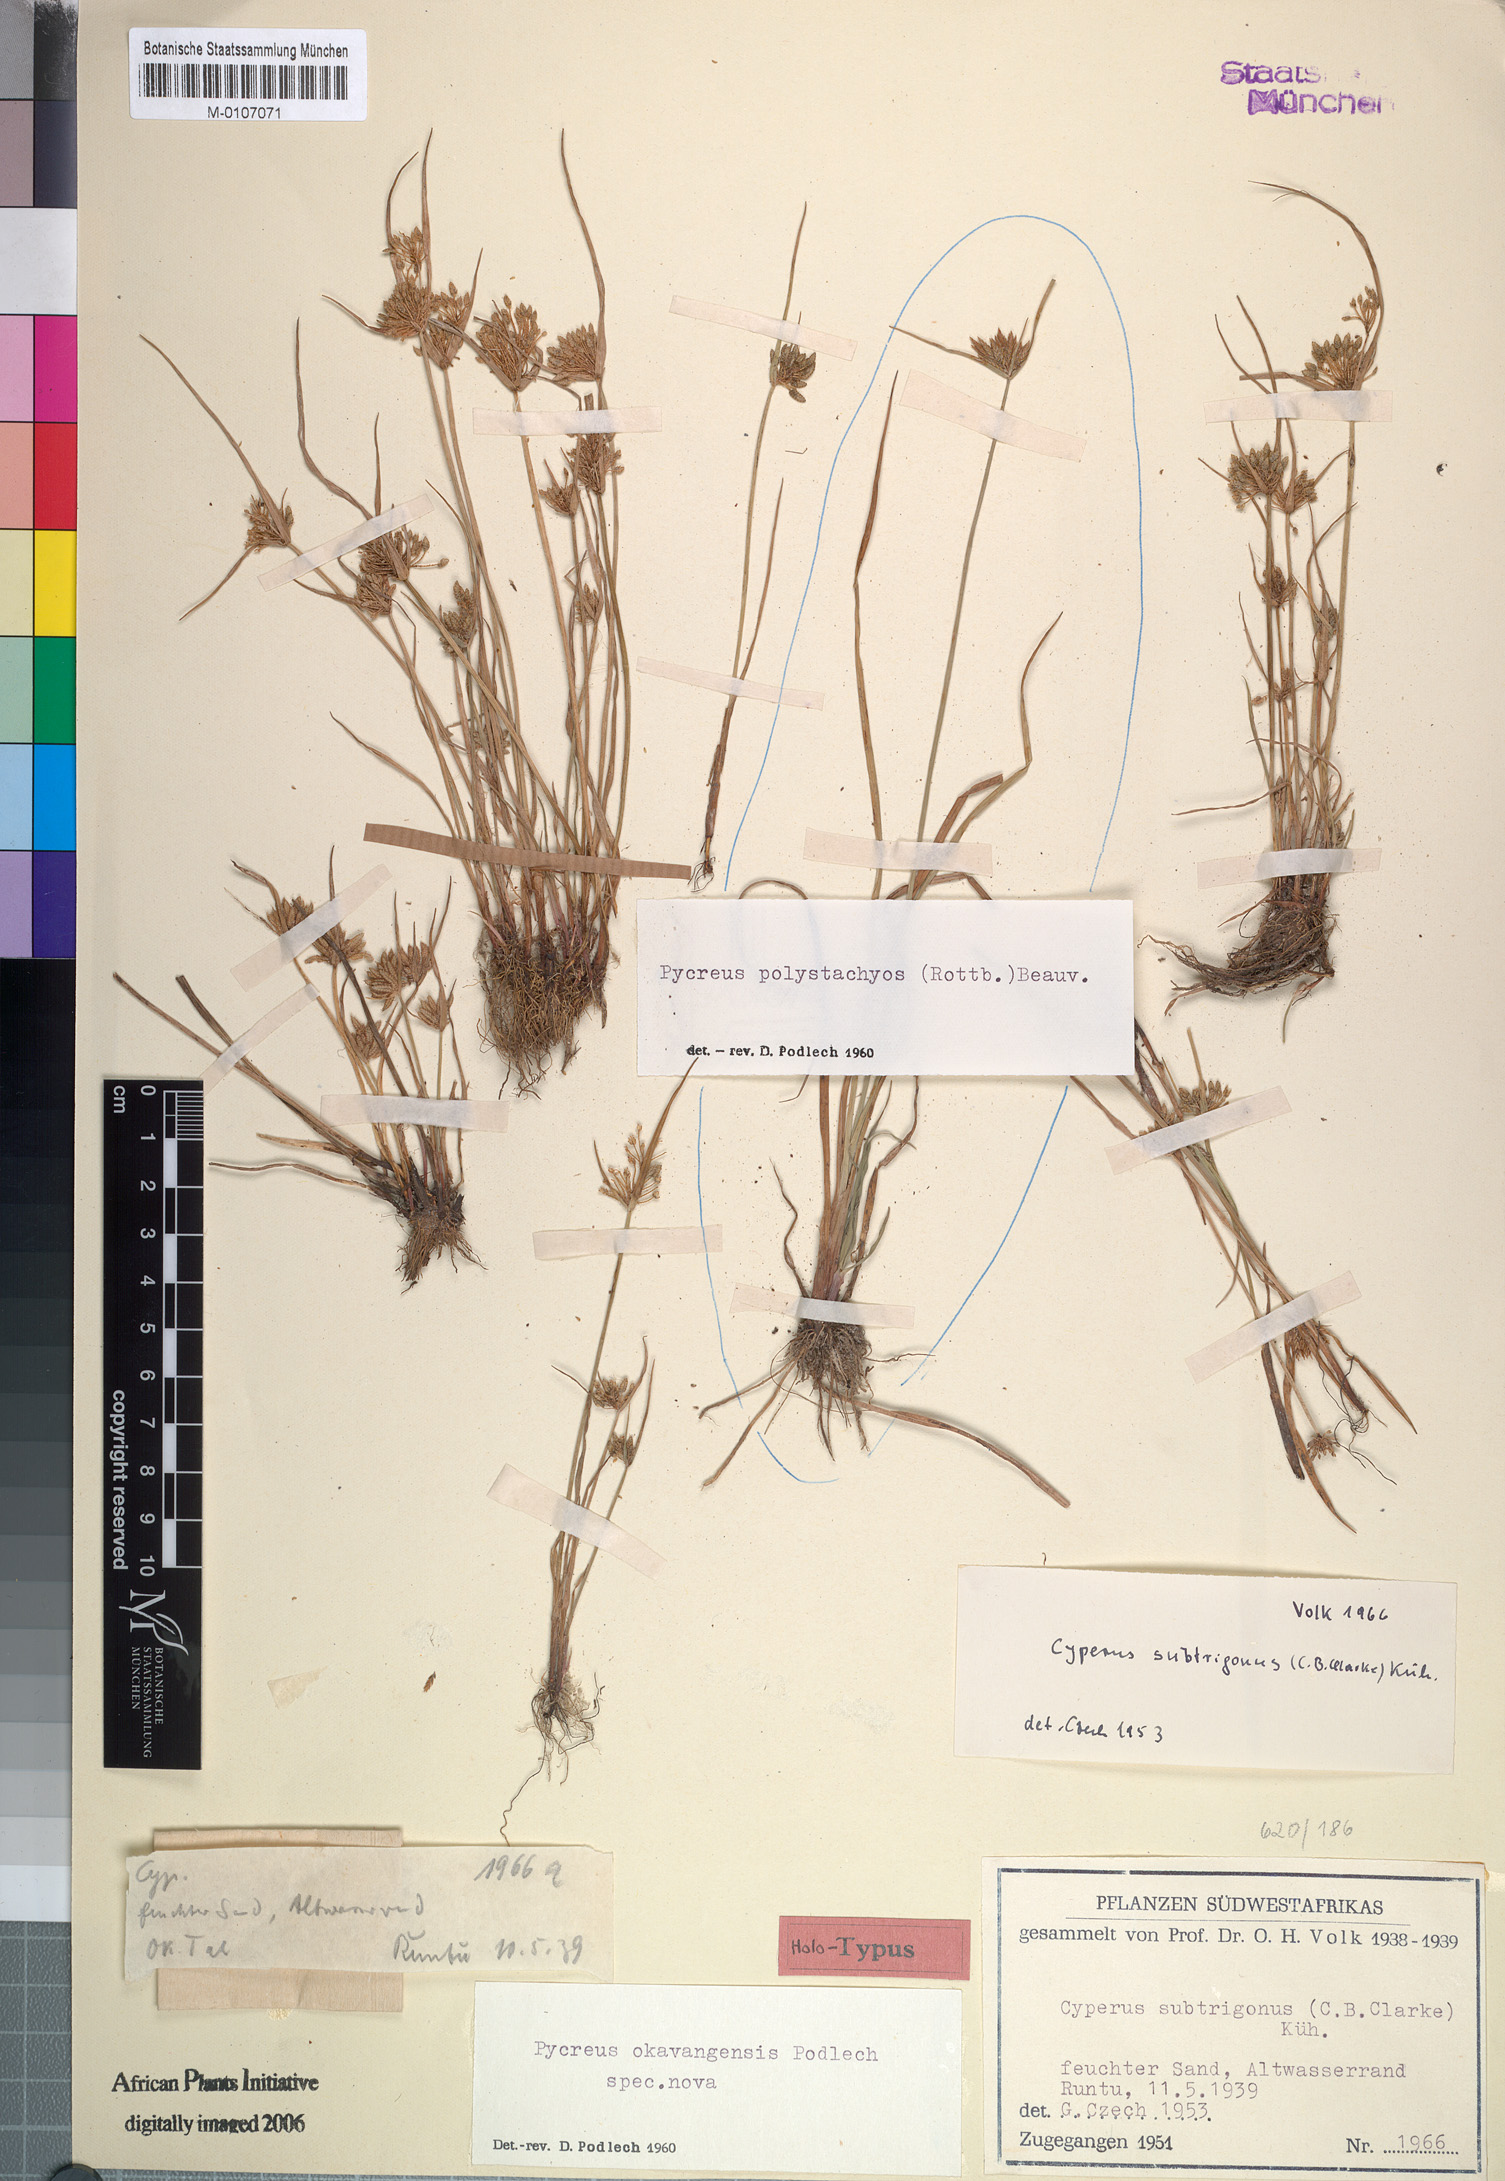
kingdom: Plantae
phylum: Tracheophyta
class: Liliopsida
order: Poales
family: Cyperaceae
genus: Cyperus
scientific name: Cyperus okavangensis
